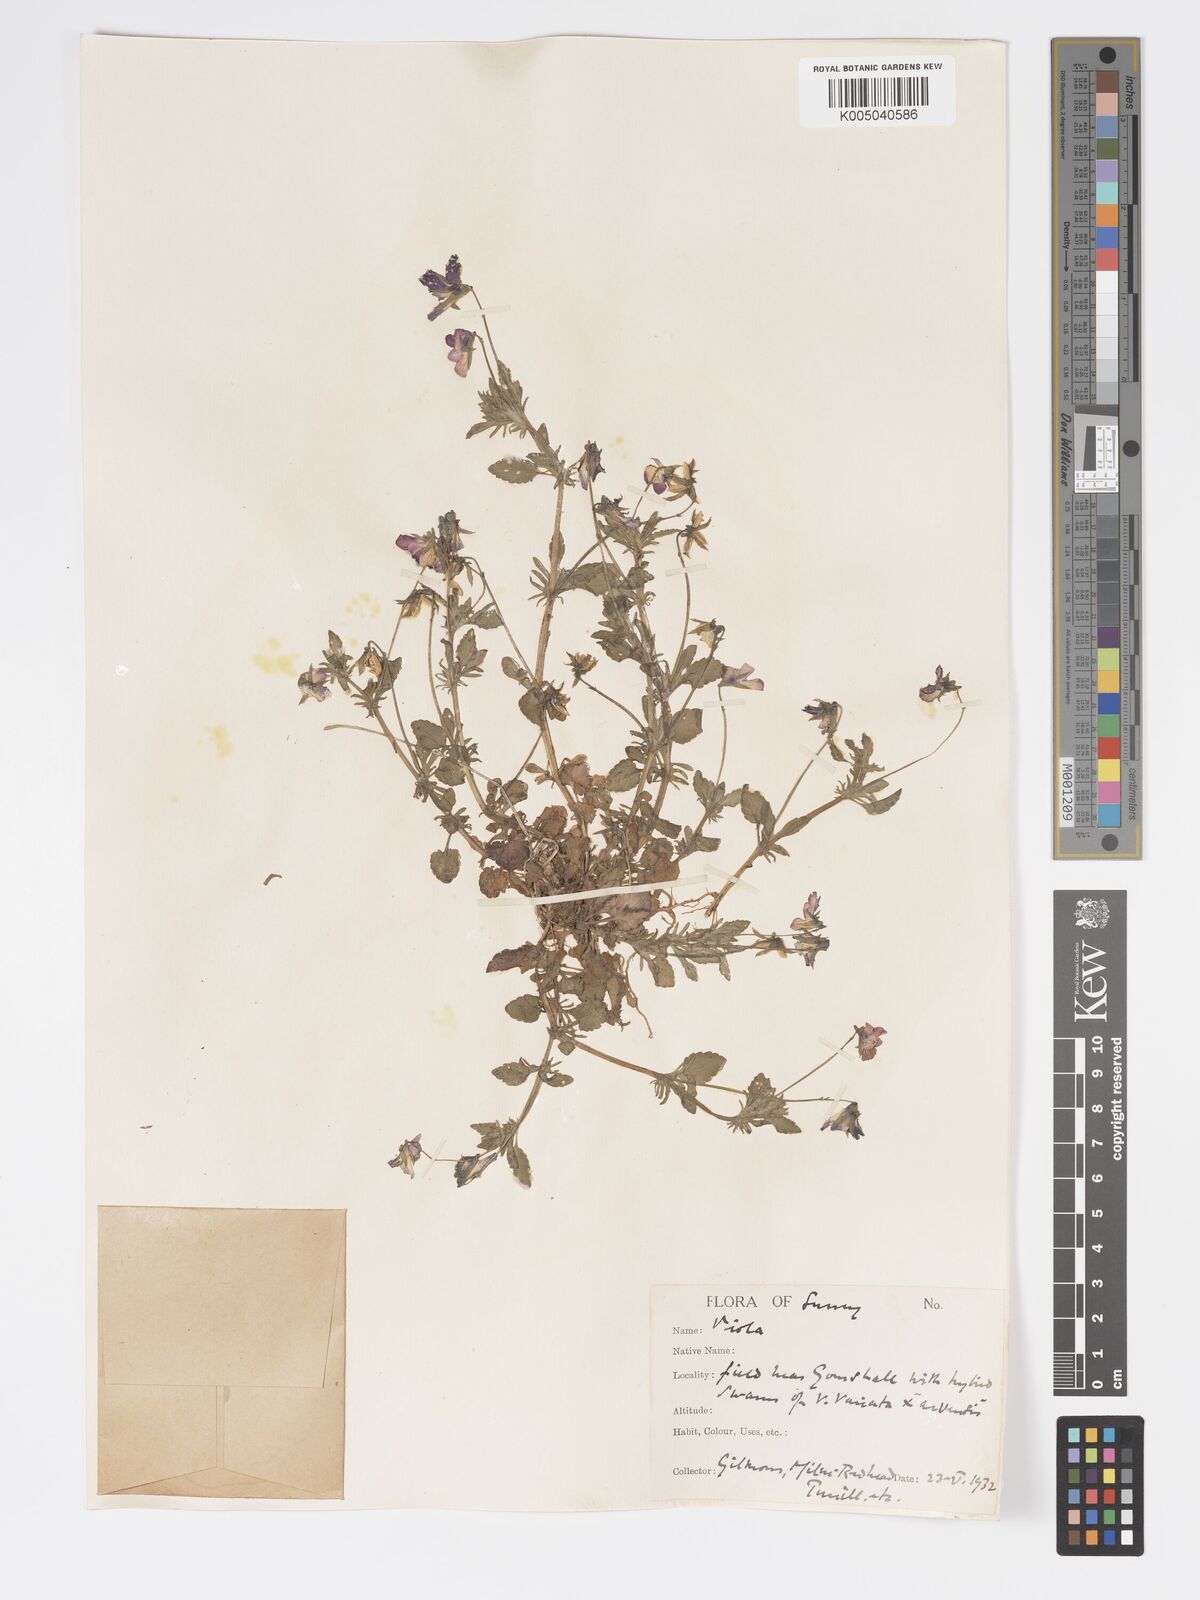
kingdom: Plantae
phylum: Tracheophyta
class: Magnoliopsida
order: Malpighiales
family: Violaceae
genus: Viola
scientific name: Viola
